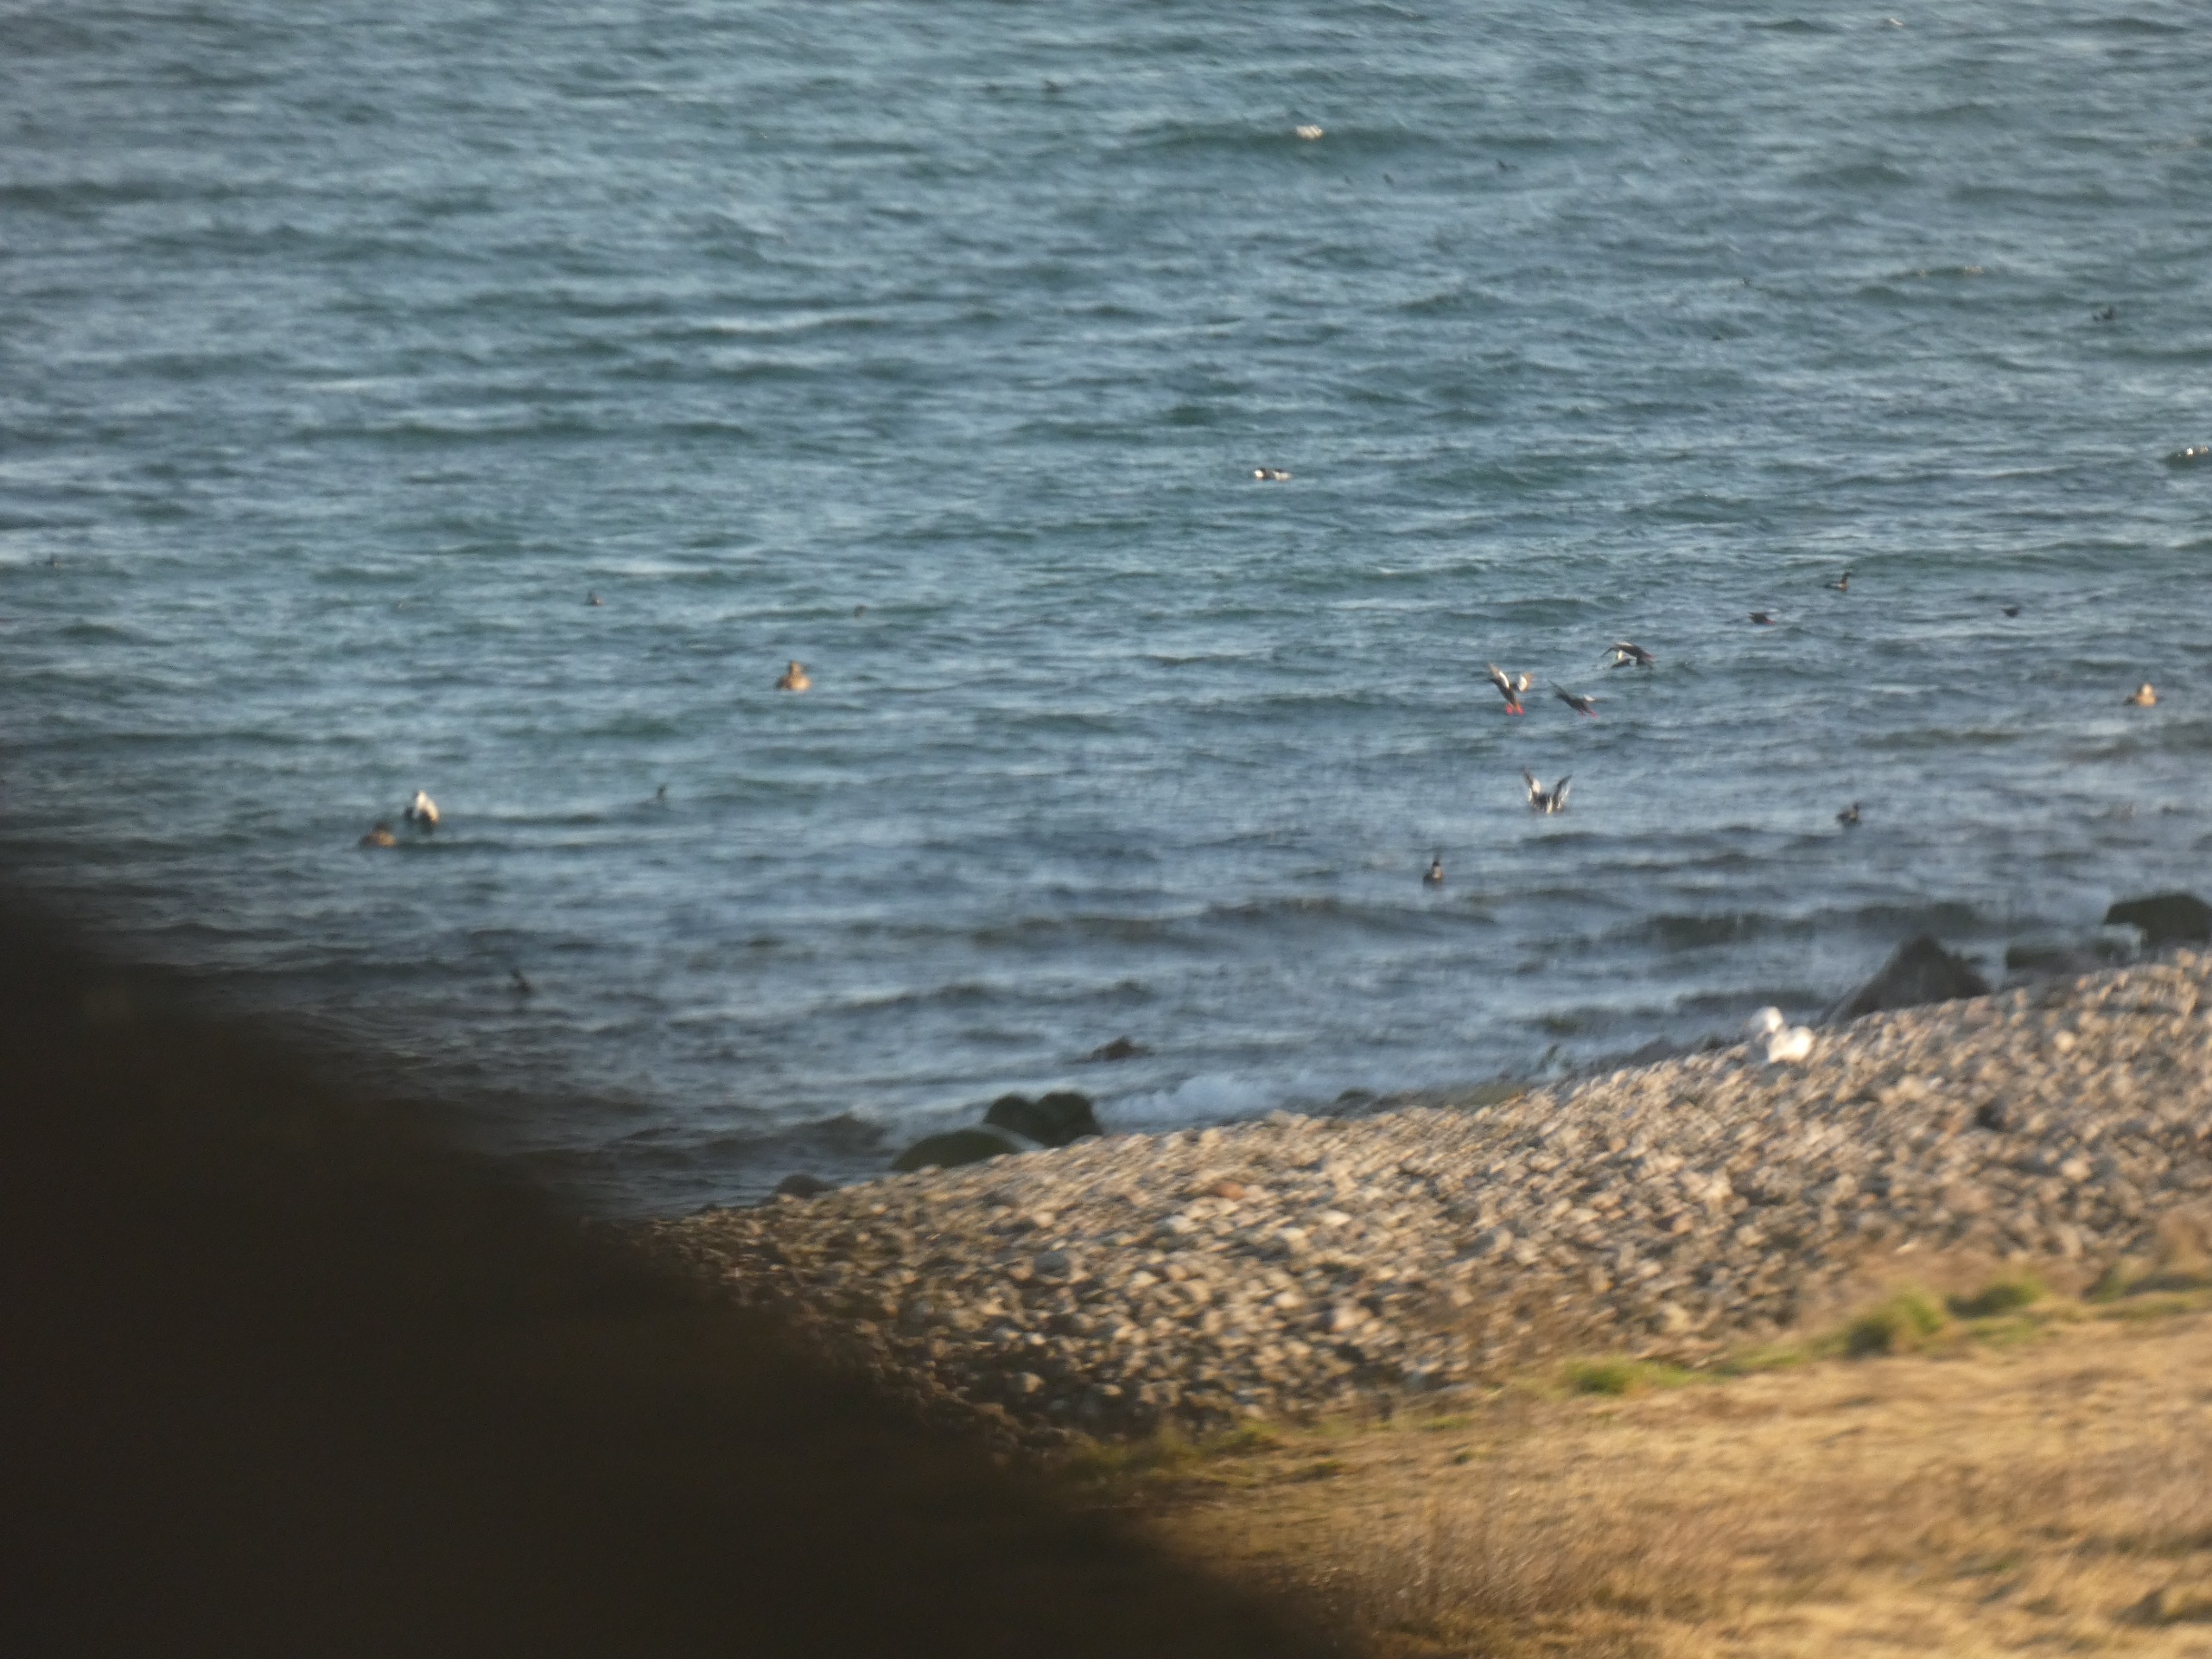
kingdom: Animalia
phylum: Chordata
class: Aves
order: Charadriiformes
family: Alcidae
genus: Cepphus
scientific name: Cepphus grylle
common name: Tejst
